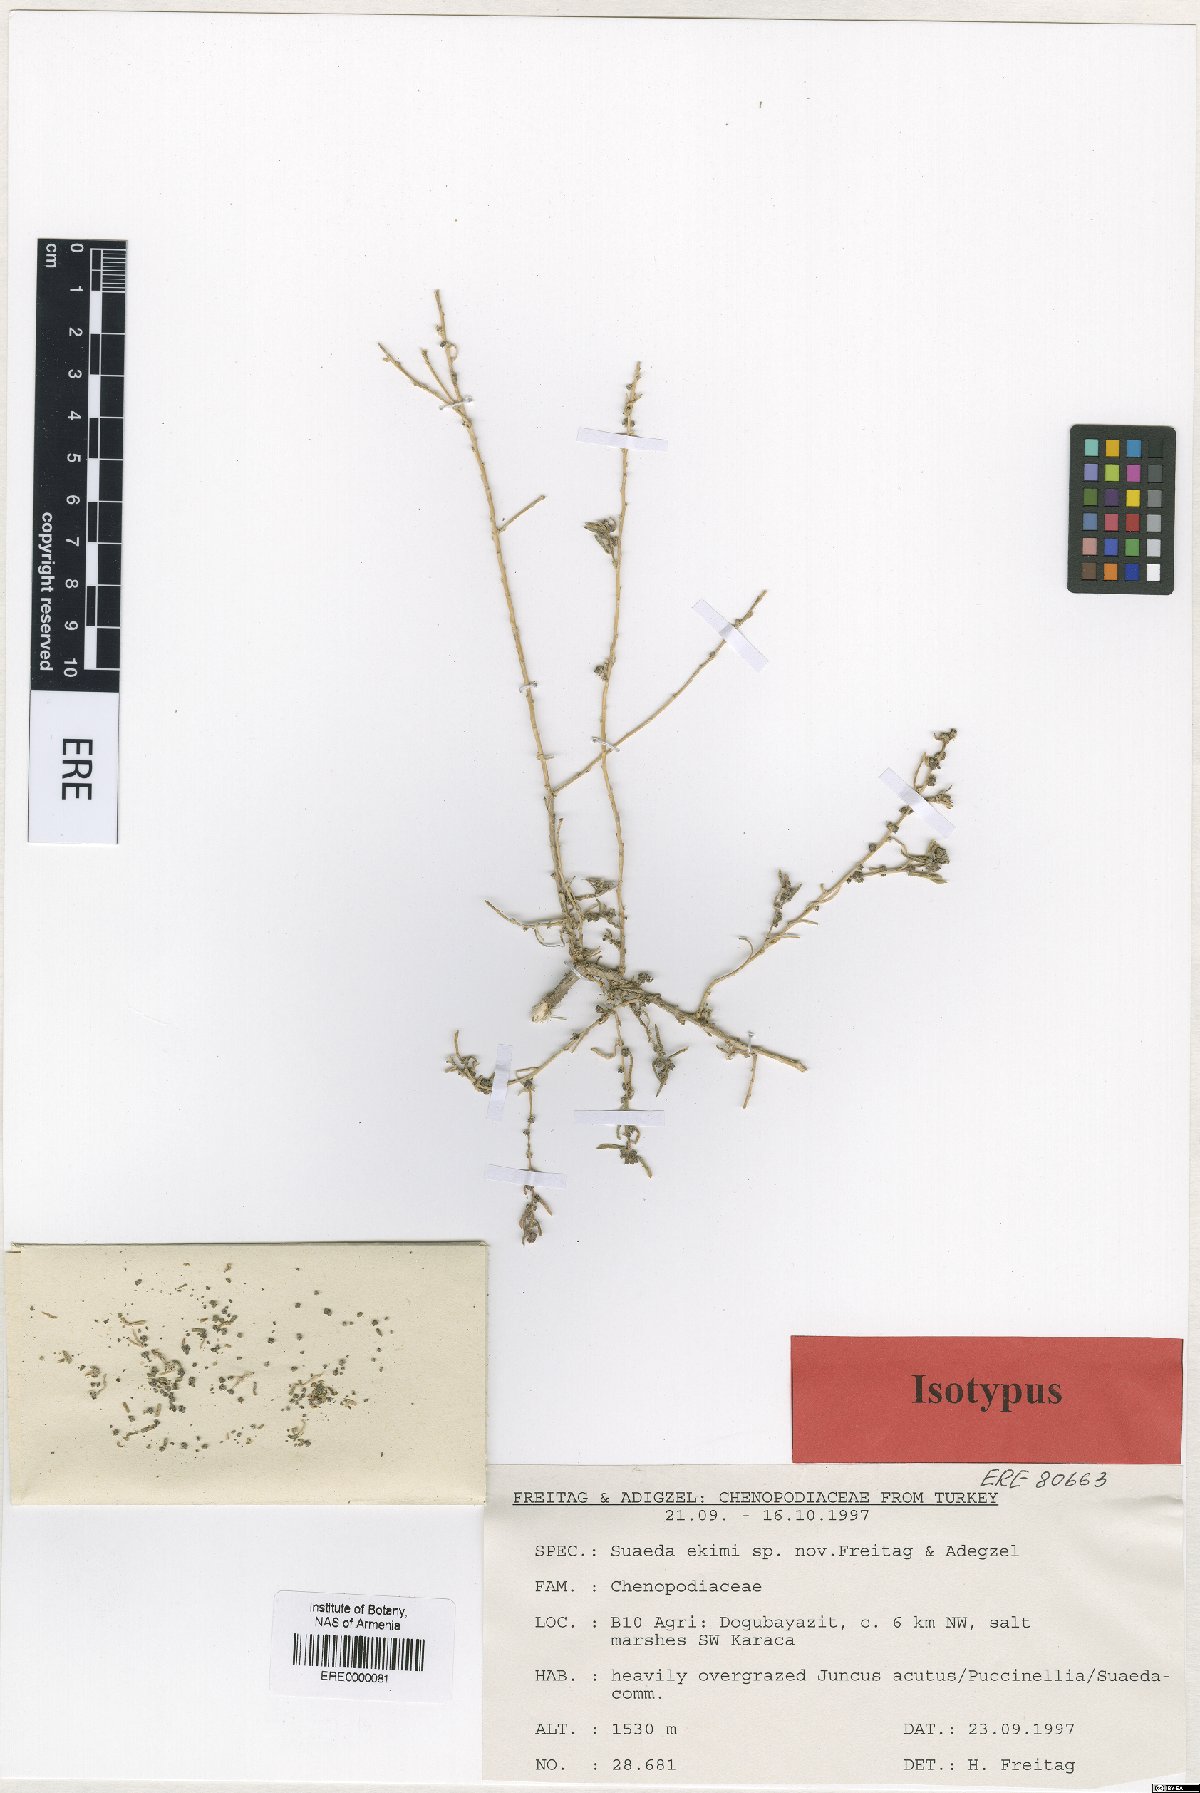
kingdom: Plantae
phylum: Tracheophyta
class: Magnoliopsida
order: Caryophyllales
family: Amaranthaceae
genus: Suaeda
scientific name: Suaeda ekimi
